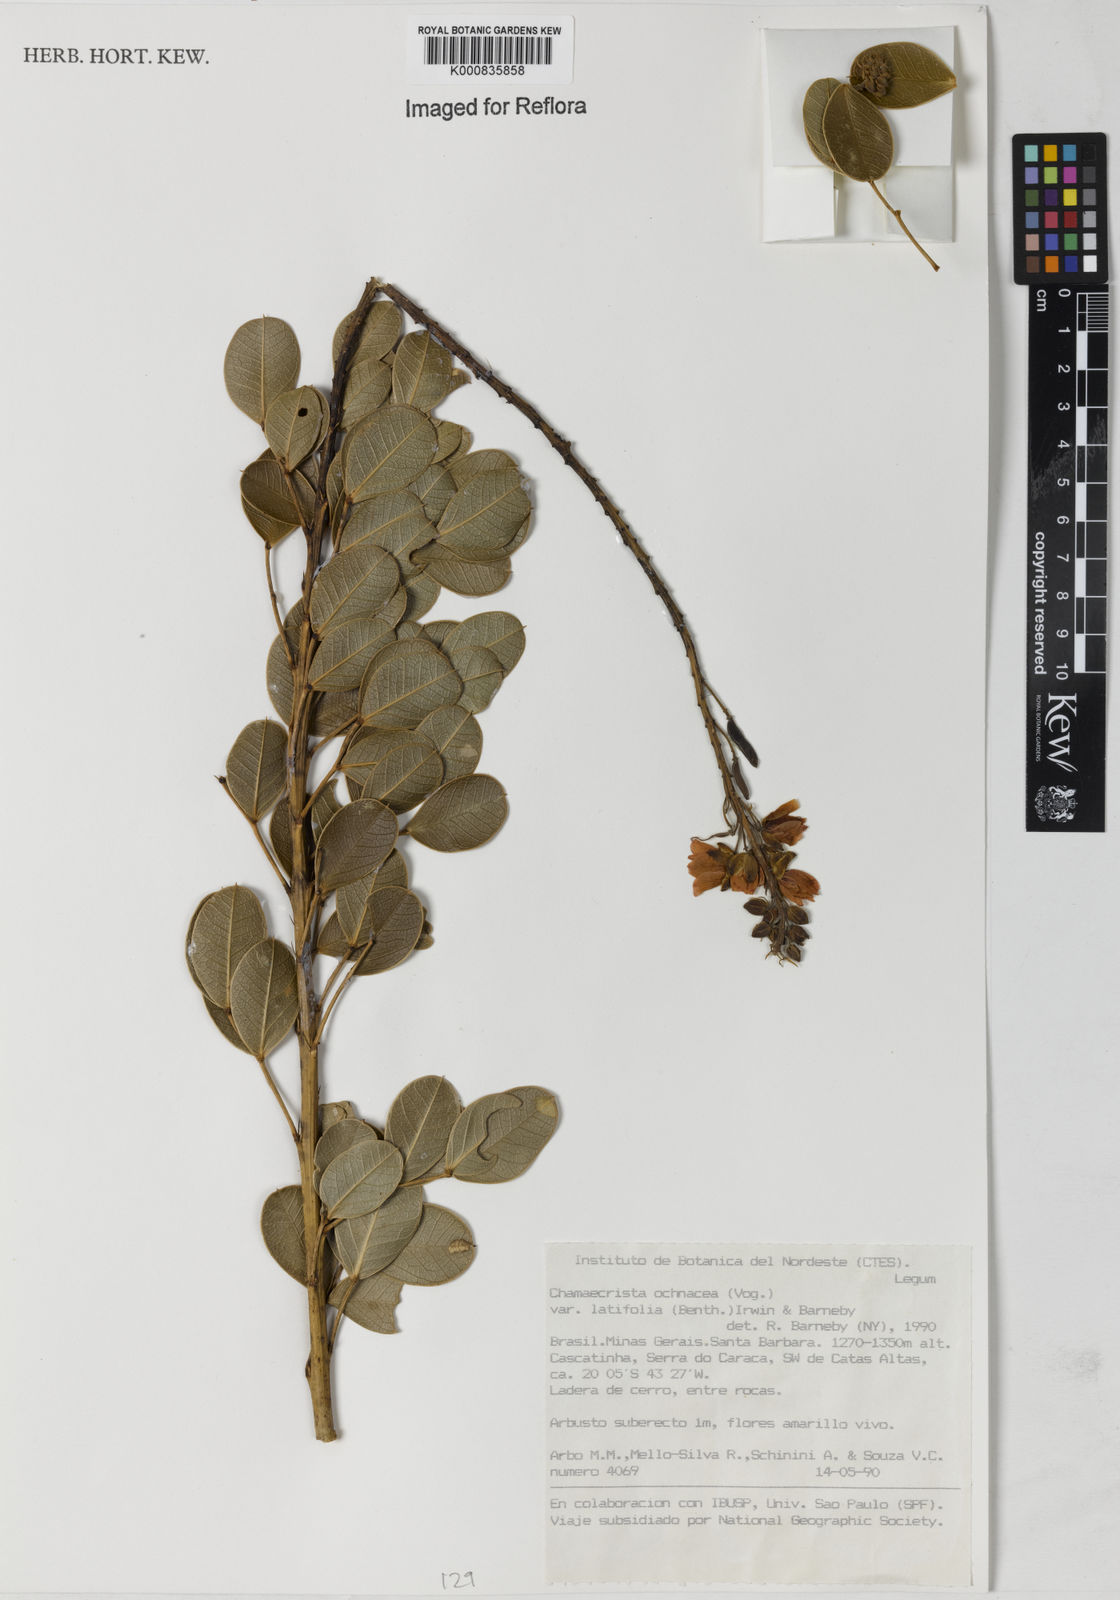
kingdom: Plantae
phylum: Tracheophyta
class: Magnoliopsida
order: Fabales
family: Fabaceae
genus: Chamaecrista
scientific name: Chamaecrista ochnacea
